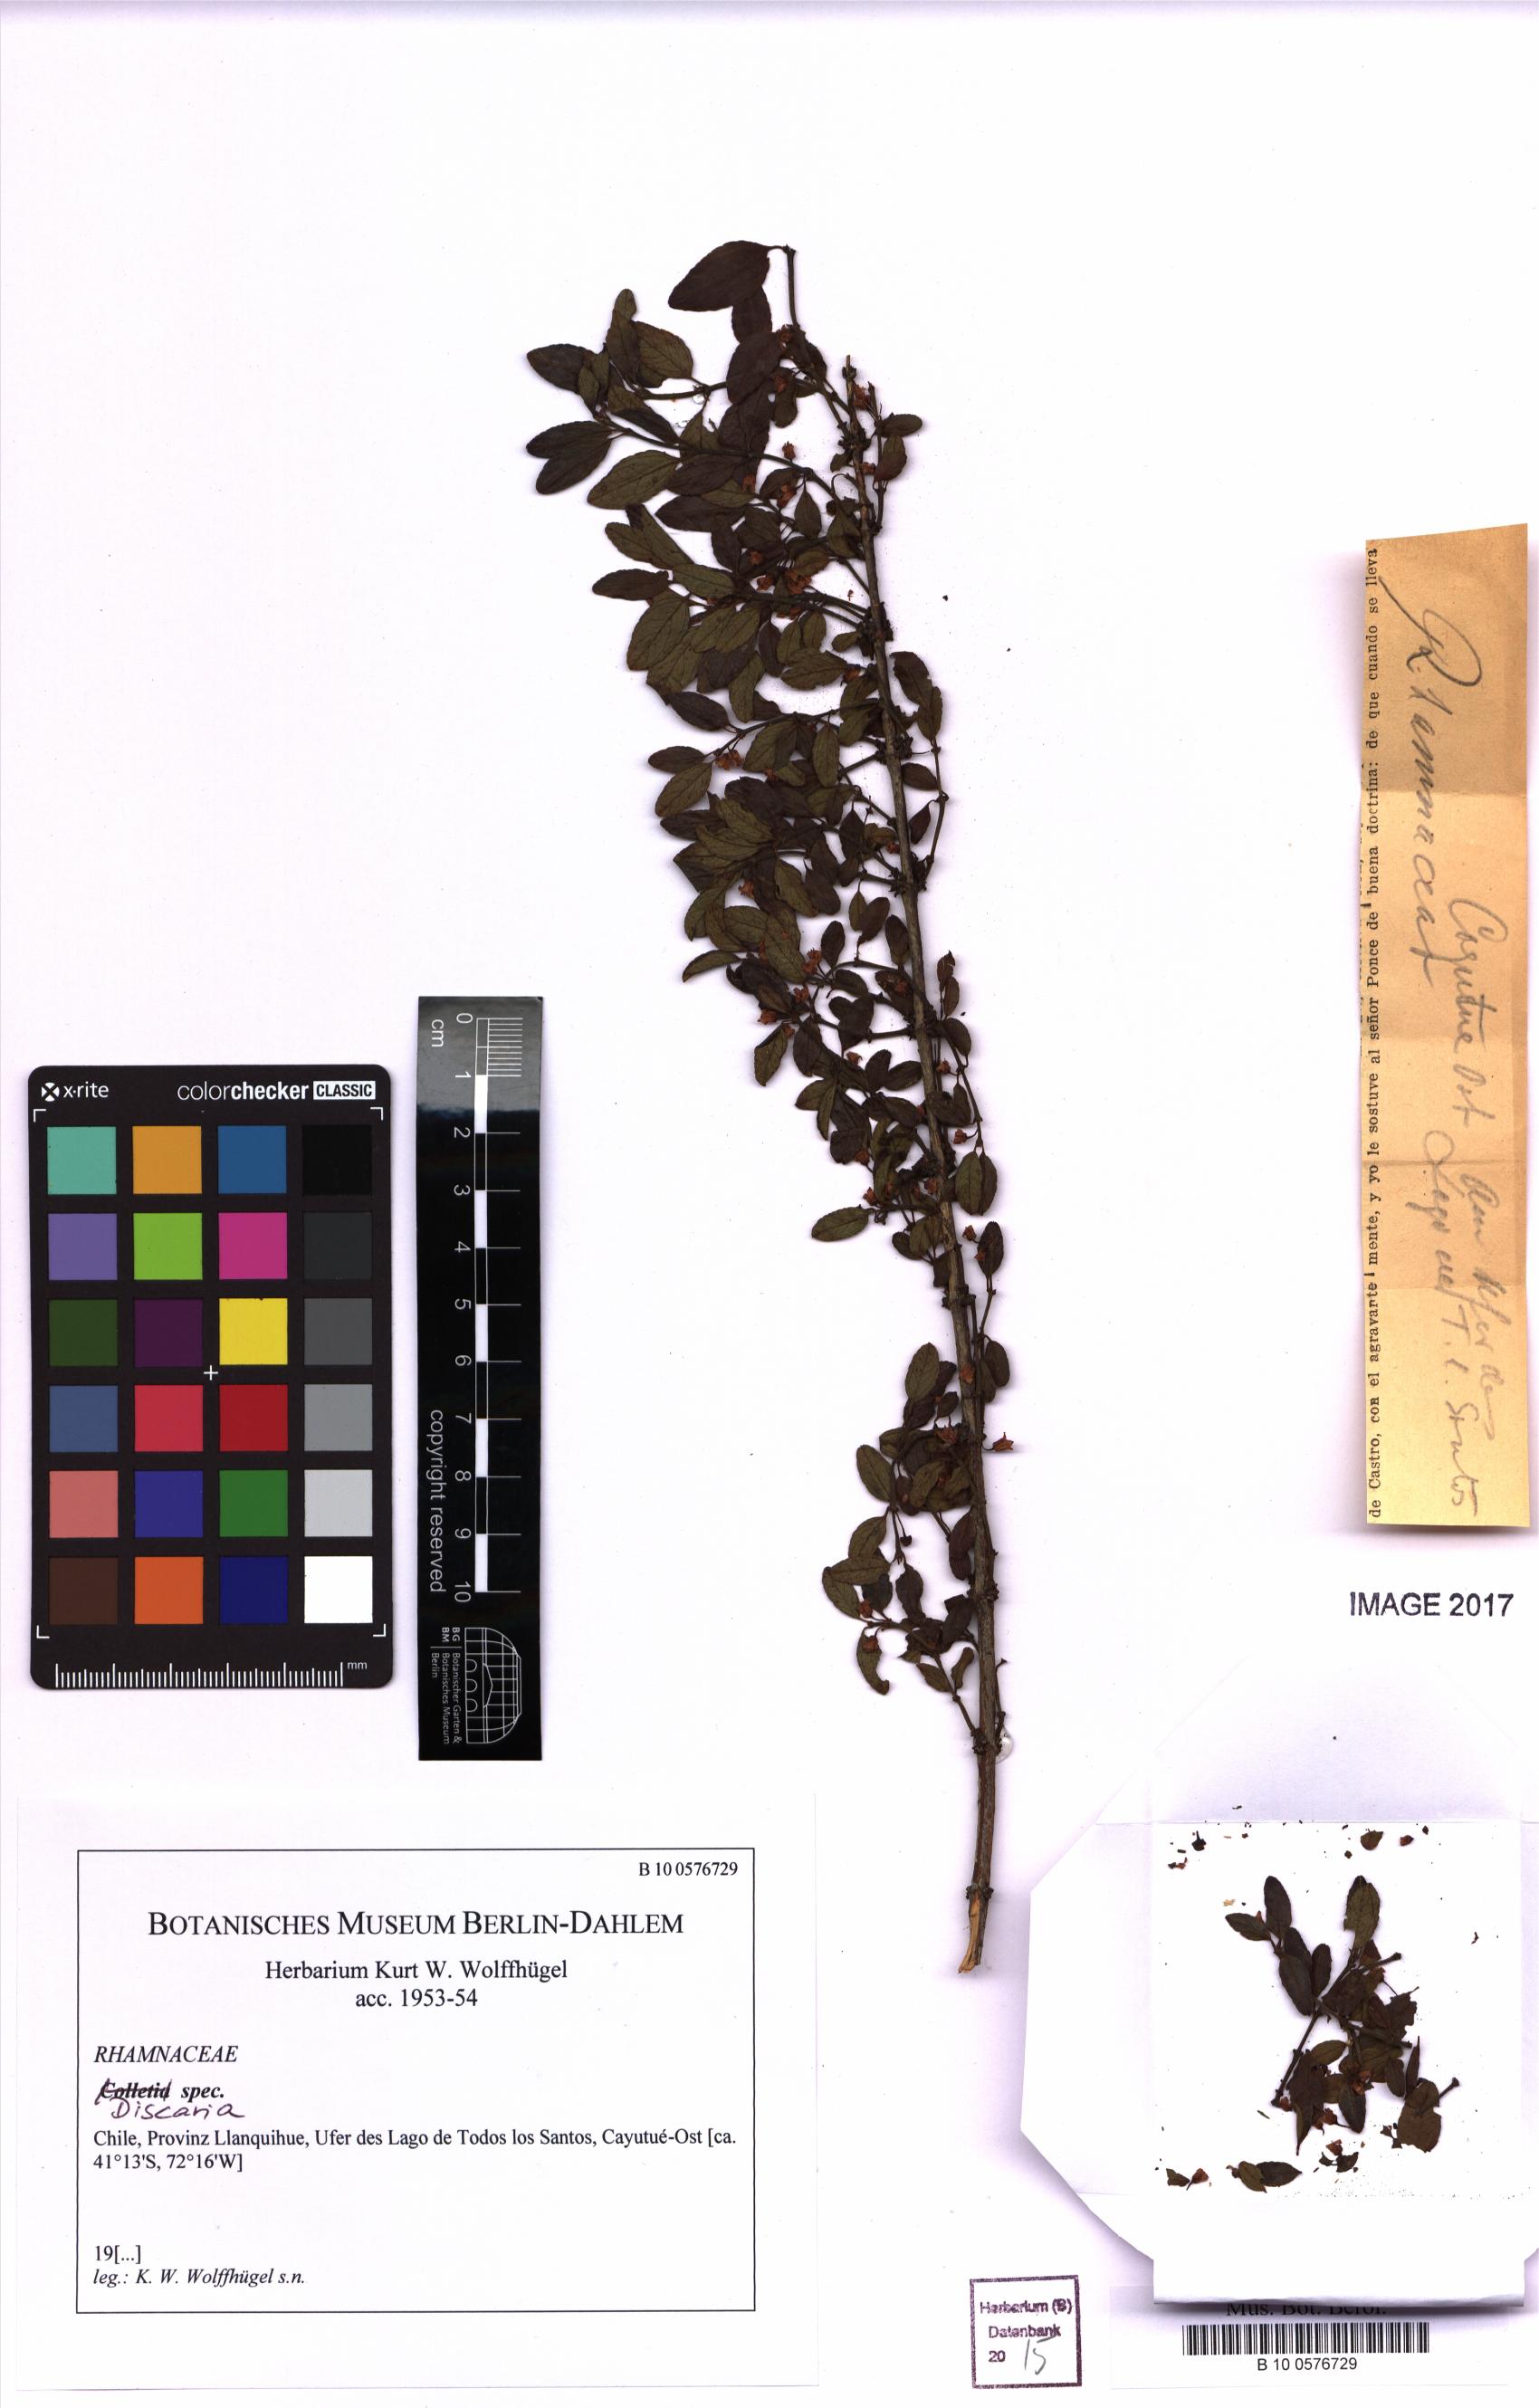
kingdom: Plantae
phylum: Tracheophyta
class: Magnoliopsida
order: Rosales
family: Rhamnaceae
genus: Discaria
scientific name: Discaria
